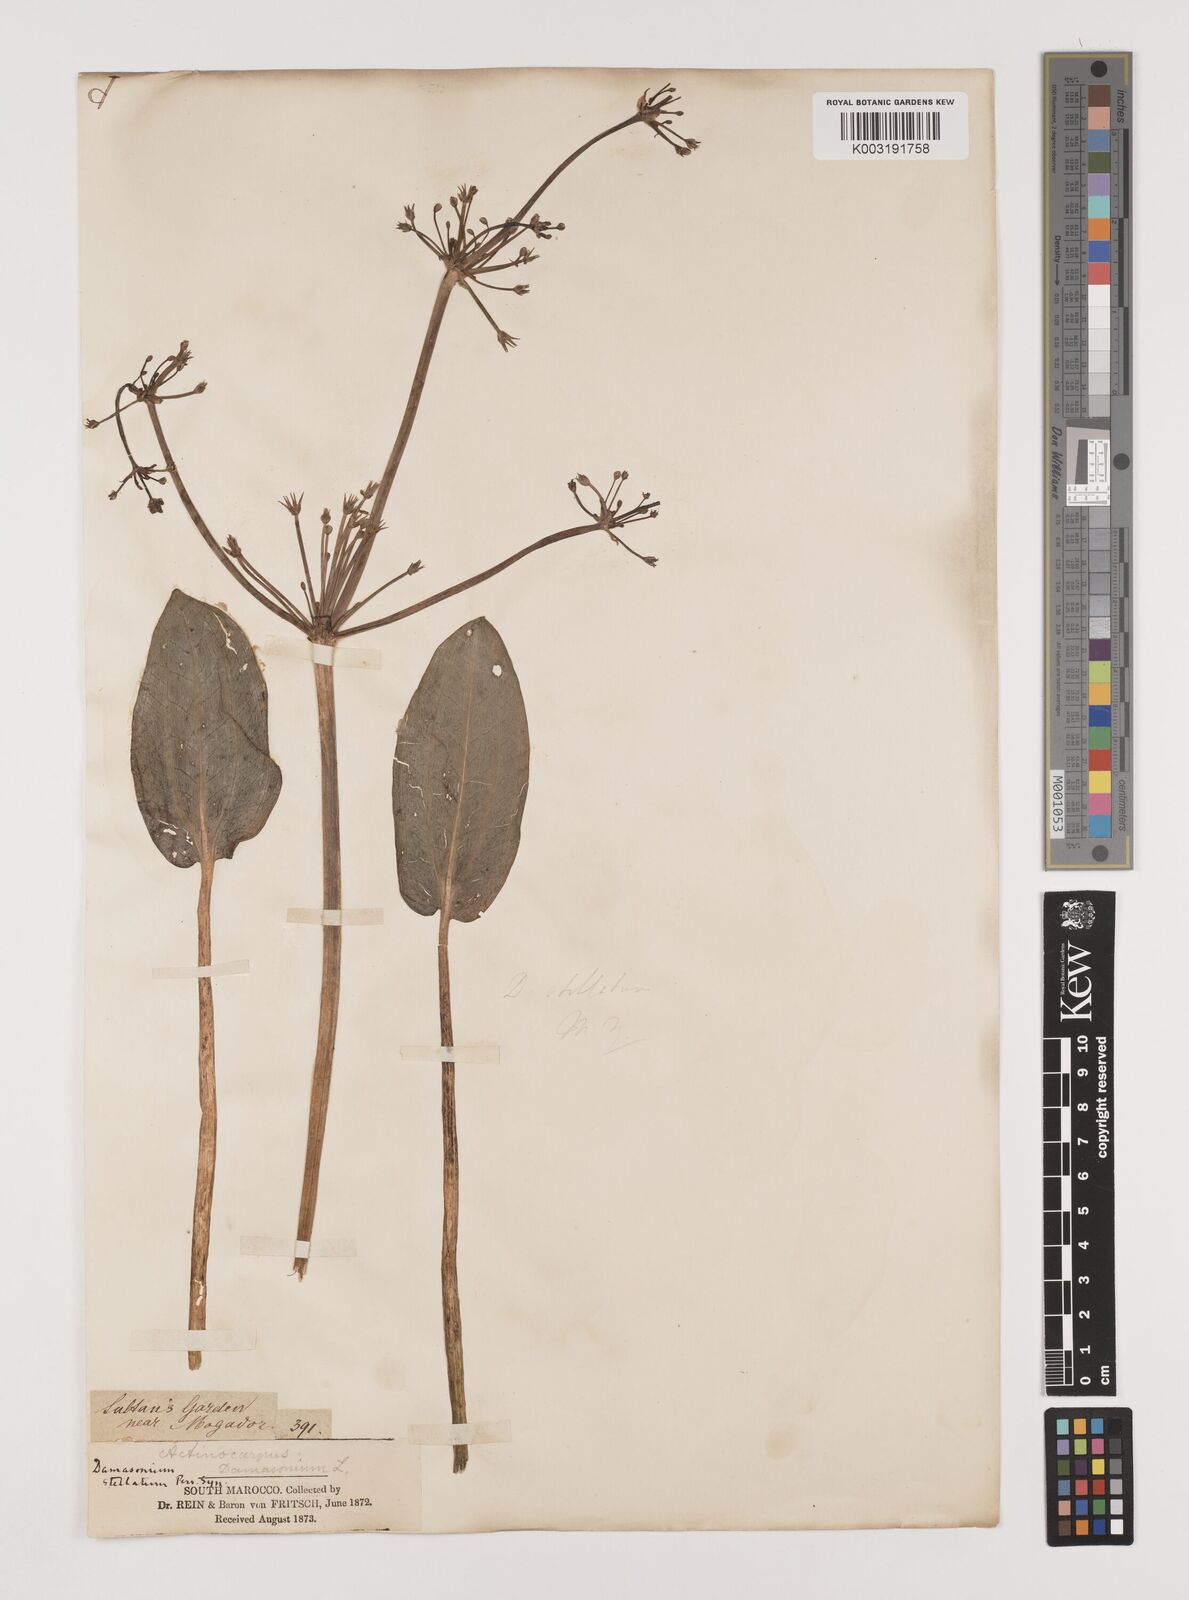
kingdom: Plantae
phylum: Tracheophyta
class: Liliopsida
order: Alismatales
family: Alismataceae
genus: Damasonium
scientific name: Damasonium bourgaei
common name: Starfruit
